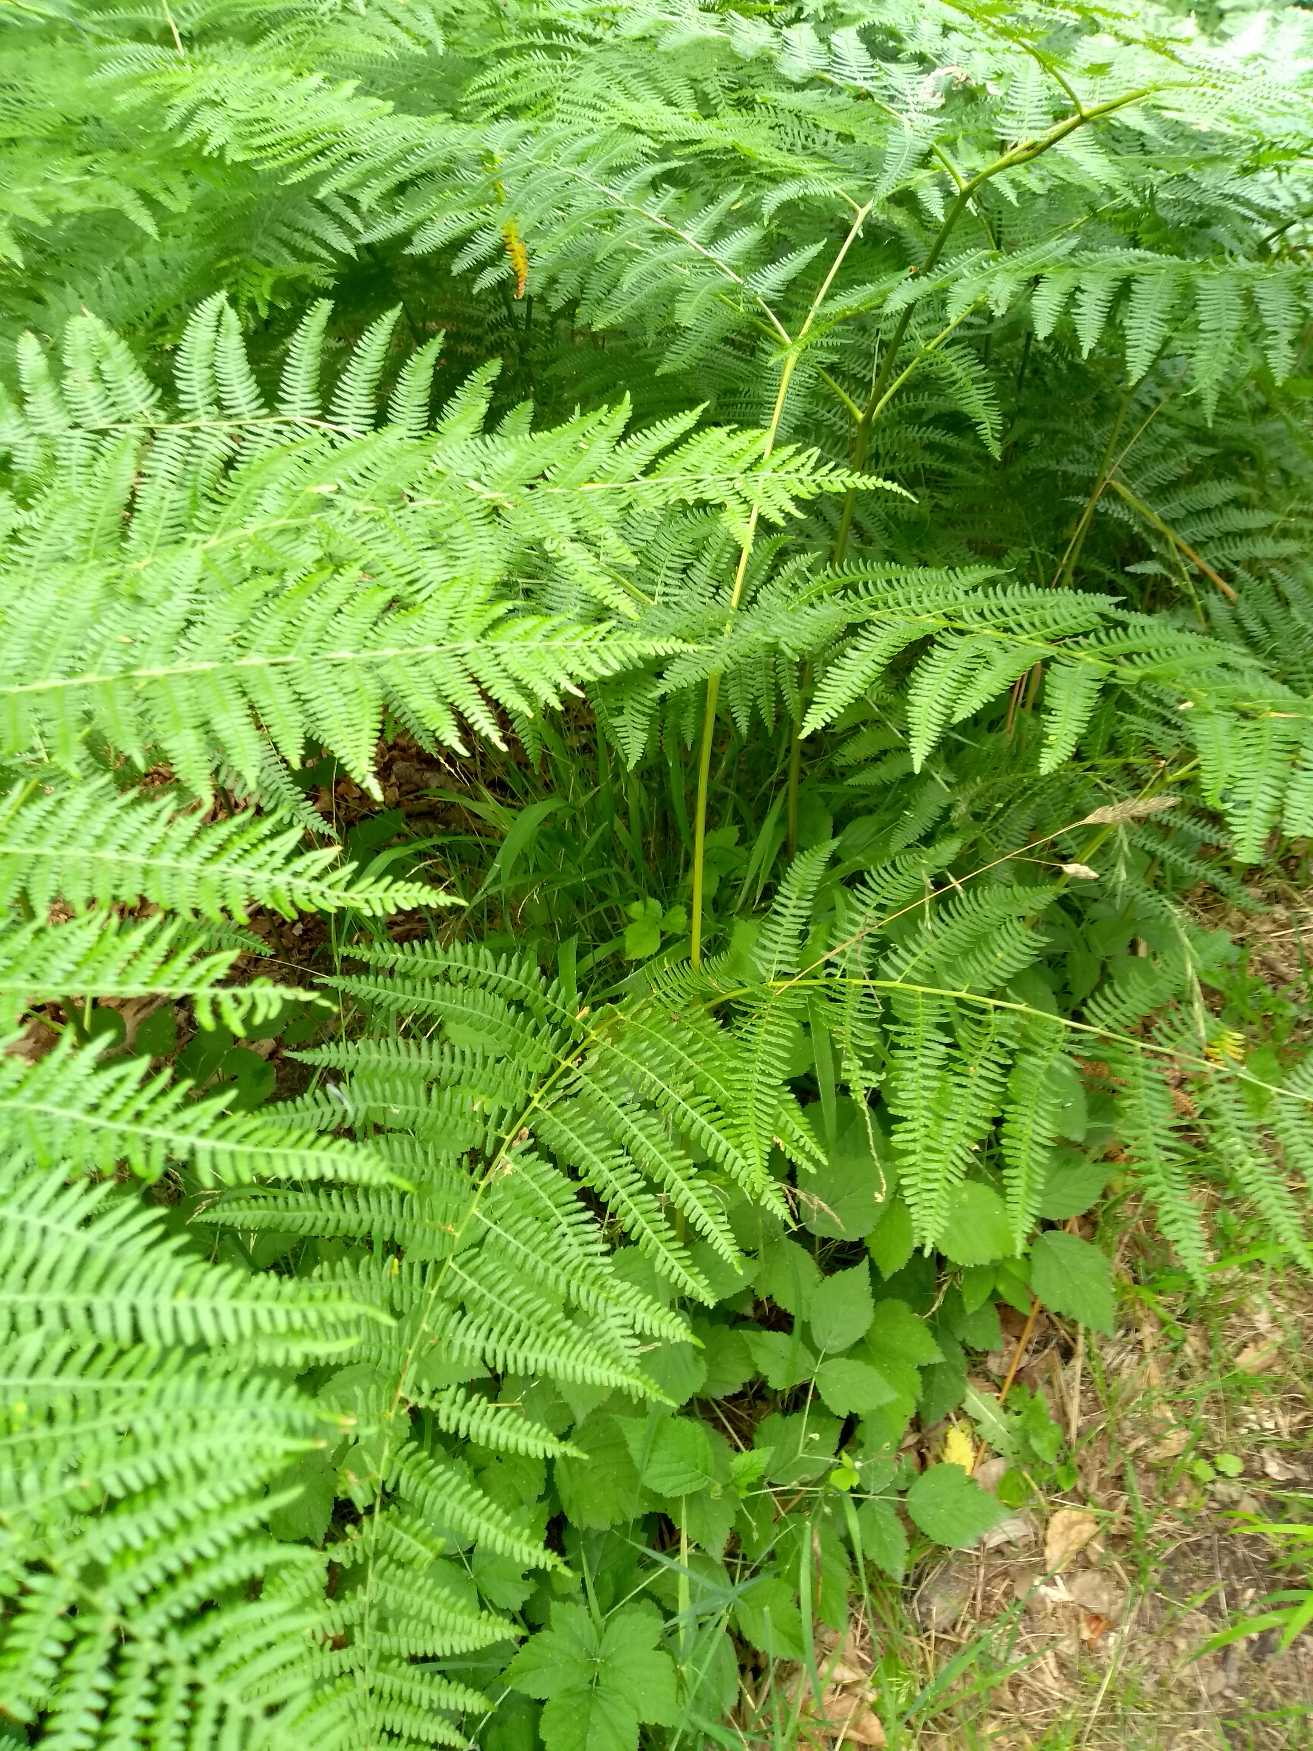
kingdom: Plantae
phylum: Tracheophyta
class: Polypodiopsida
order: Polypodiales
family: Dennstaedtiaceae
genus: Pteridium
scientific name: Pteridium aquilinum
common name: Ørnebregne
